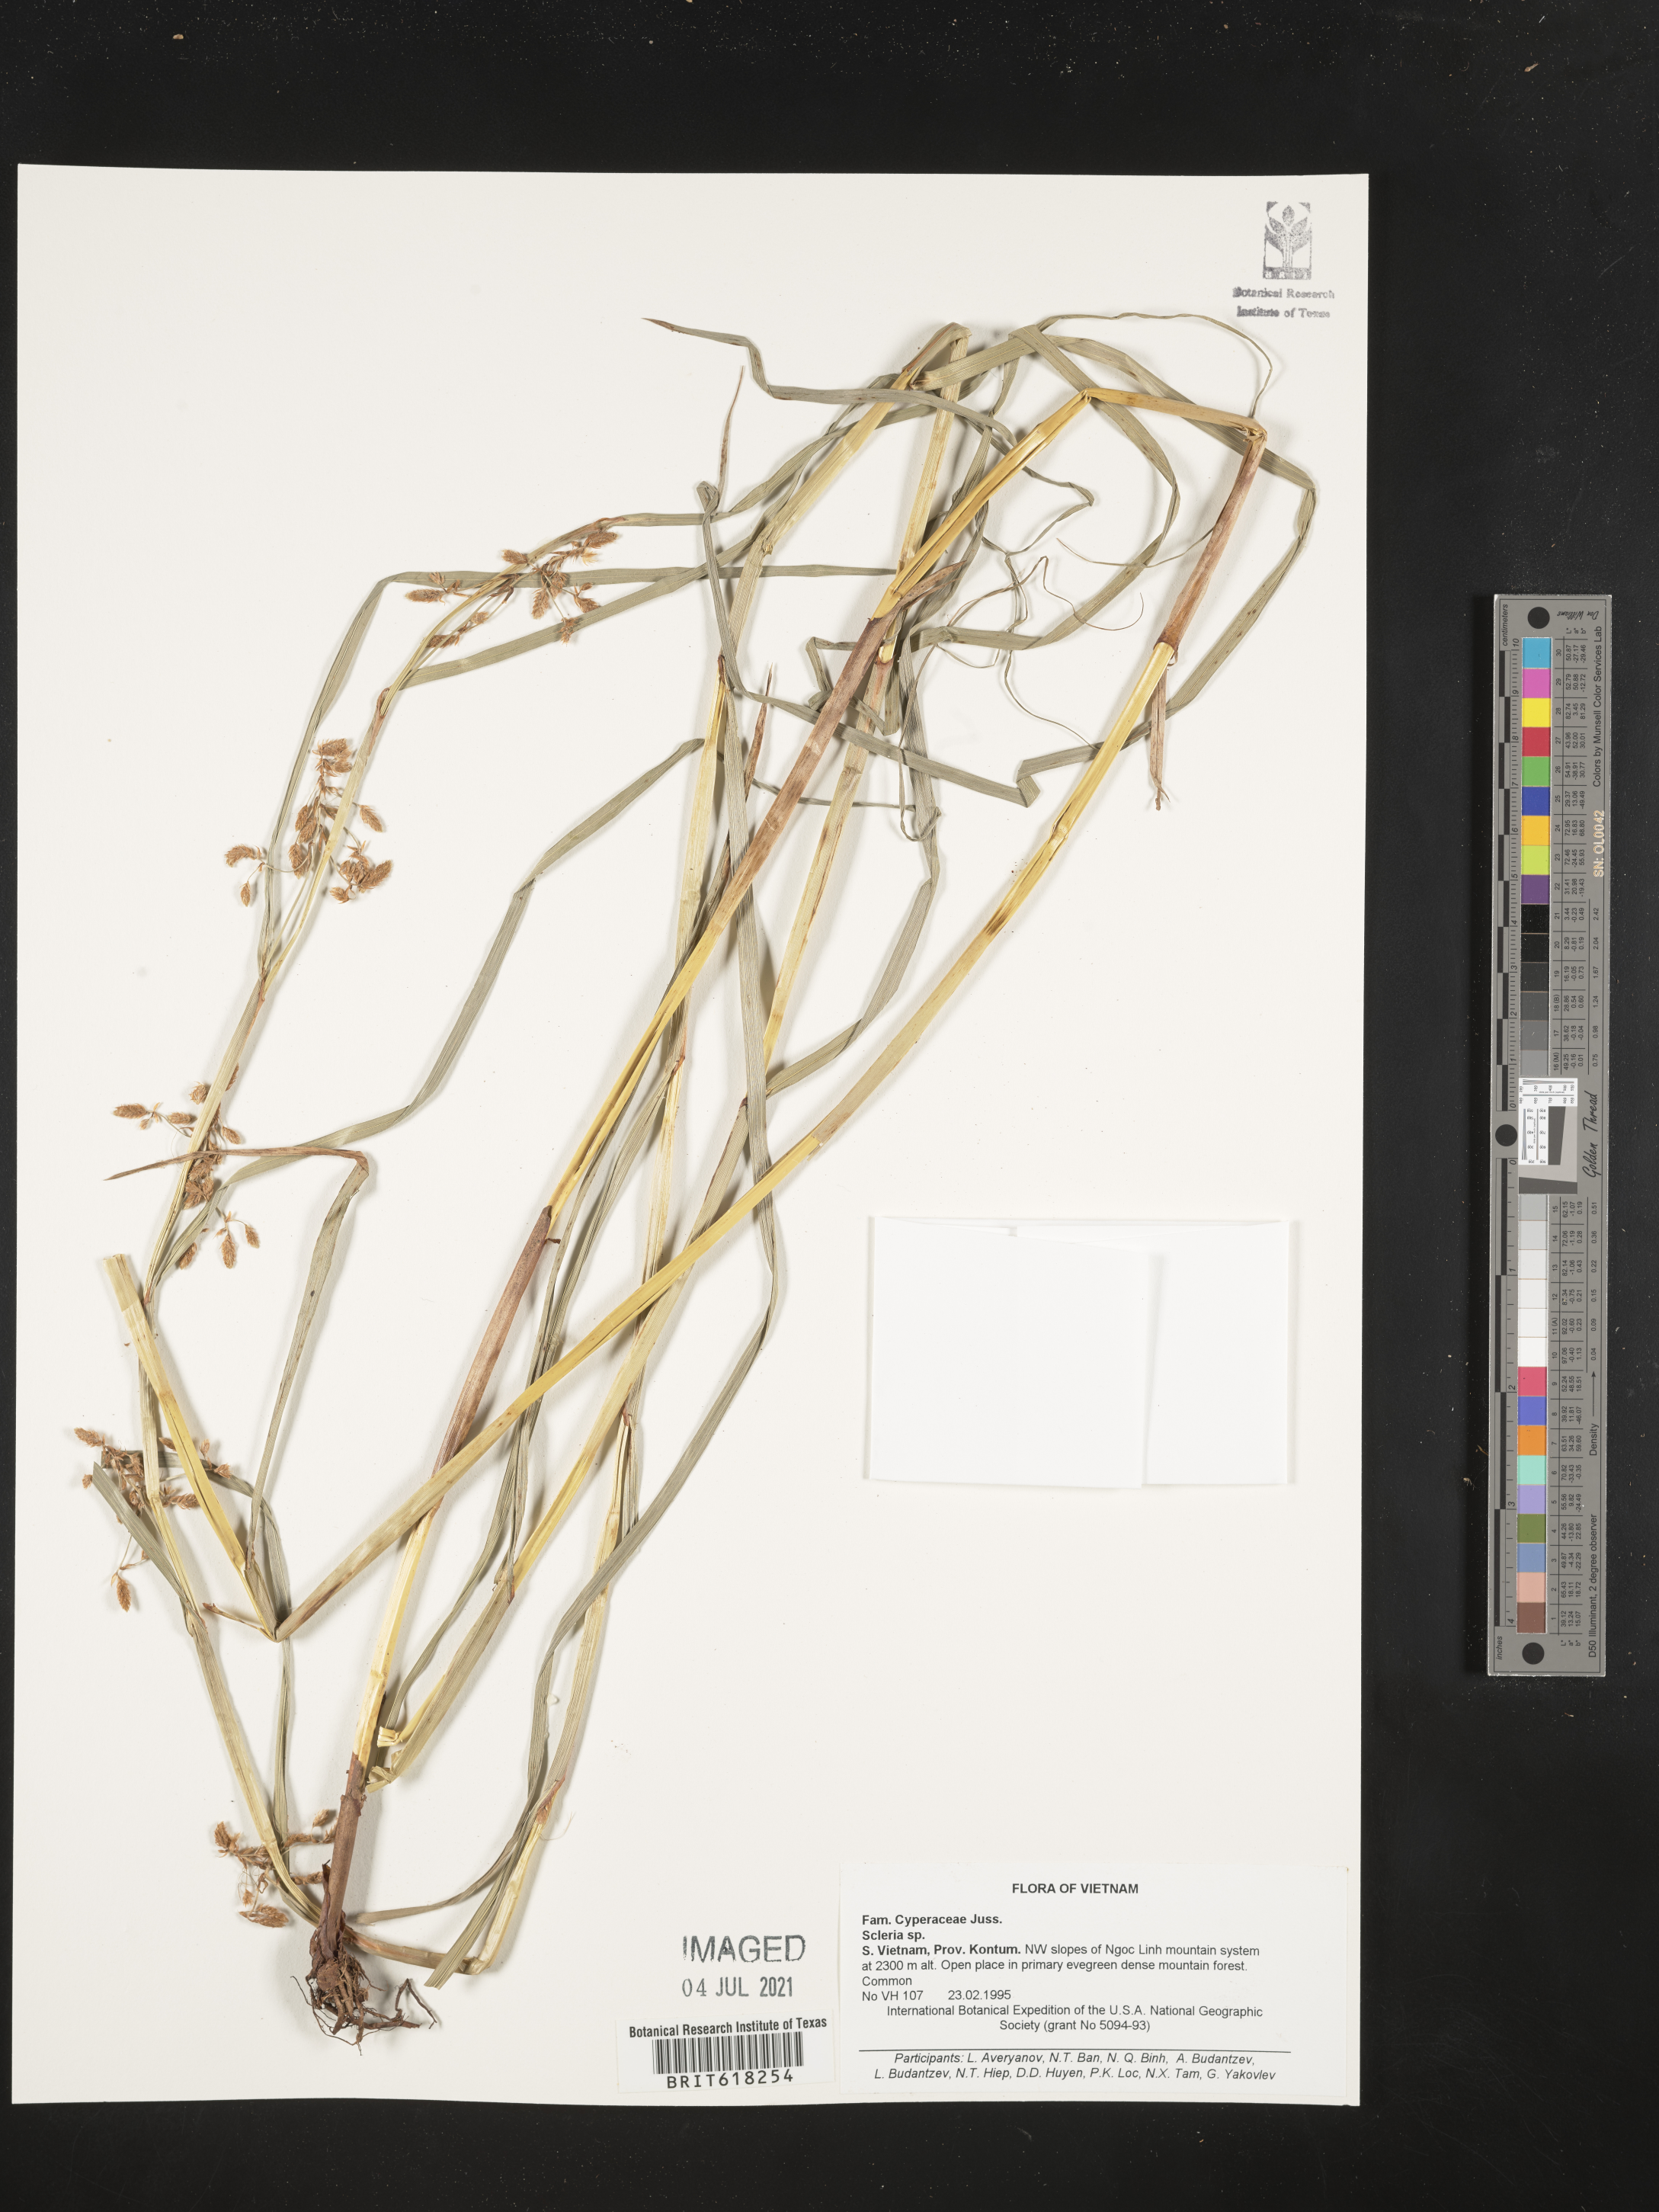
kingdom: Plantae
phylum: Tracheophyta
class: Liliopsida
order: Poales
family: Cyperaceae
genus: Scleria
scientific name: Scleria
